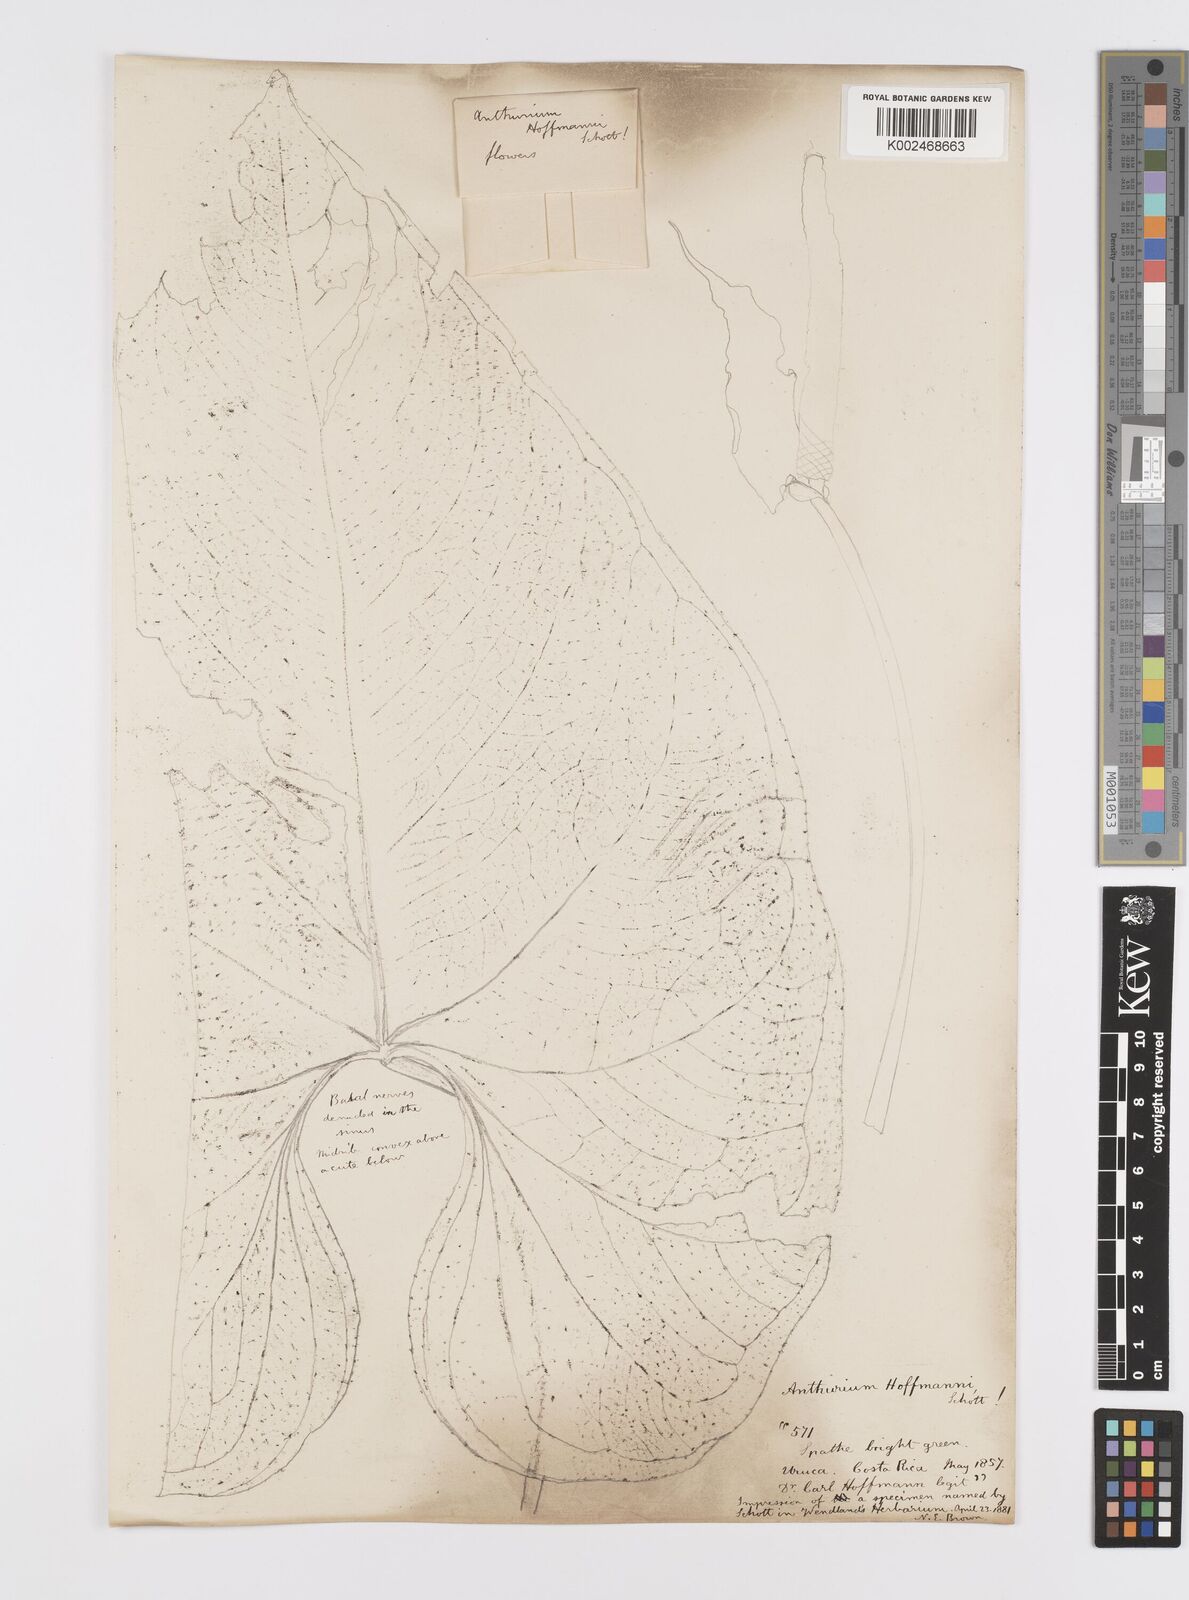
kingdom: Plantae
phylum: Tracheophyta
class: Liliopsida
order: Alismatales
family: Araceae
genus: Anthurium
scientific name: Anthurium hoffmannii
